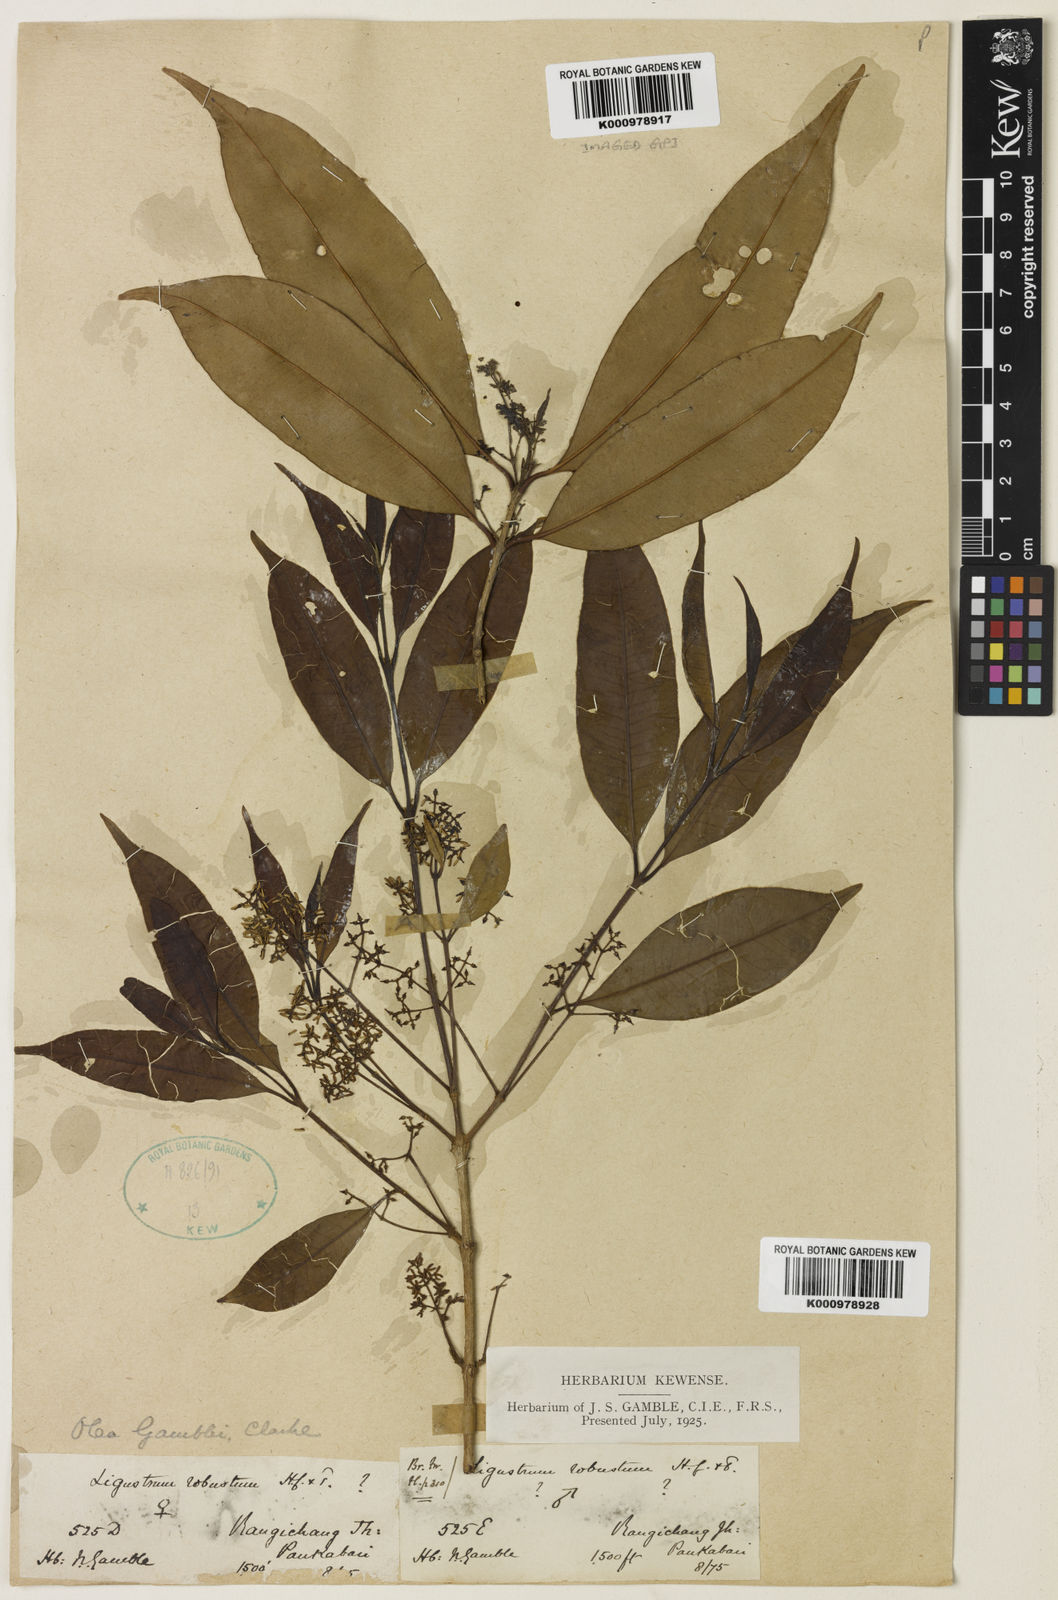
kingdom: Plantae
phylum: Tracheophyta
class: Magnoliopsida
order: Lamiales
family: Oleaceae
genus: Tetrapilus
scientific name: Tetrapilus gamblei
